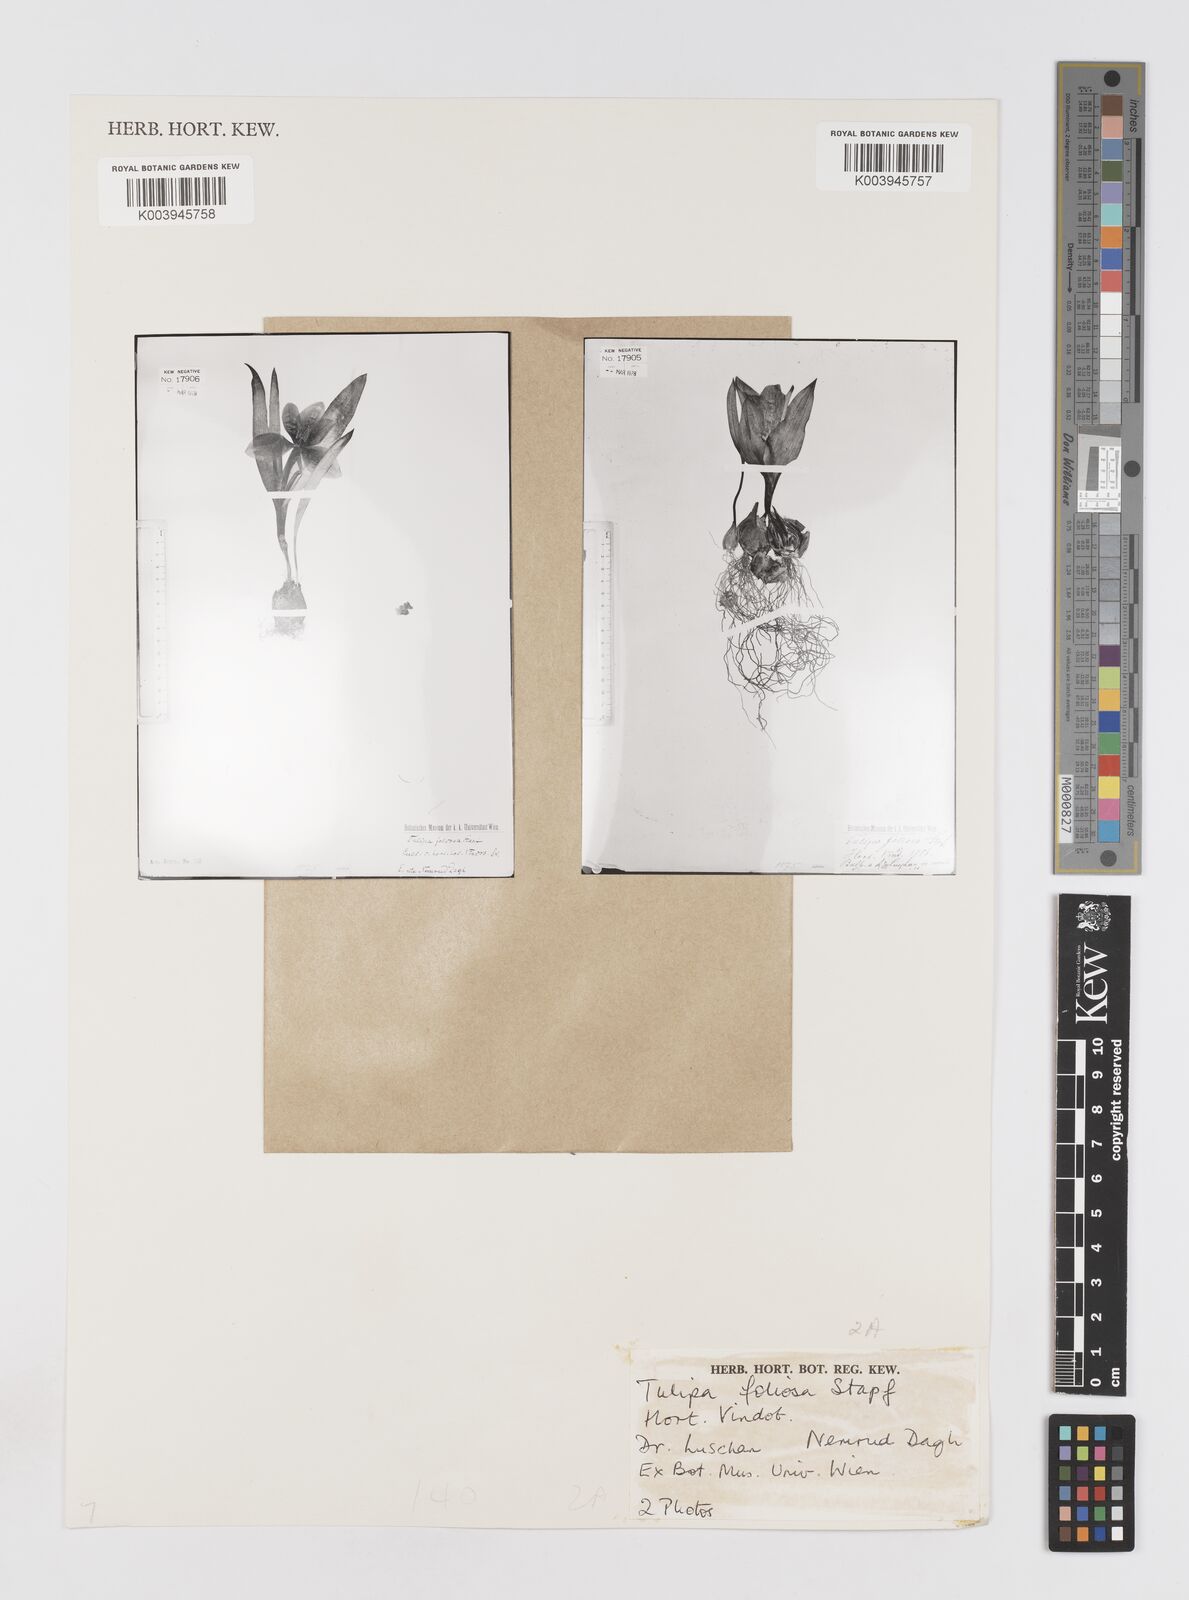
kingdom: Plantae
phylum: Tracheophyta
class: Liliopsida
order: Liliales
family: Liliaceae
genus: Tulipa
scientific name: Tulipa foliosa
